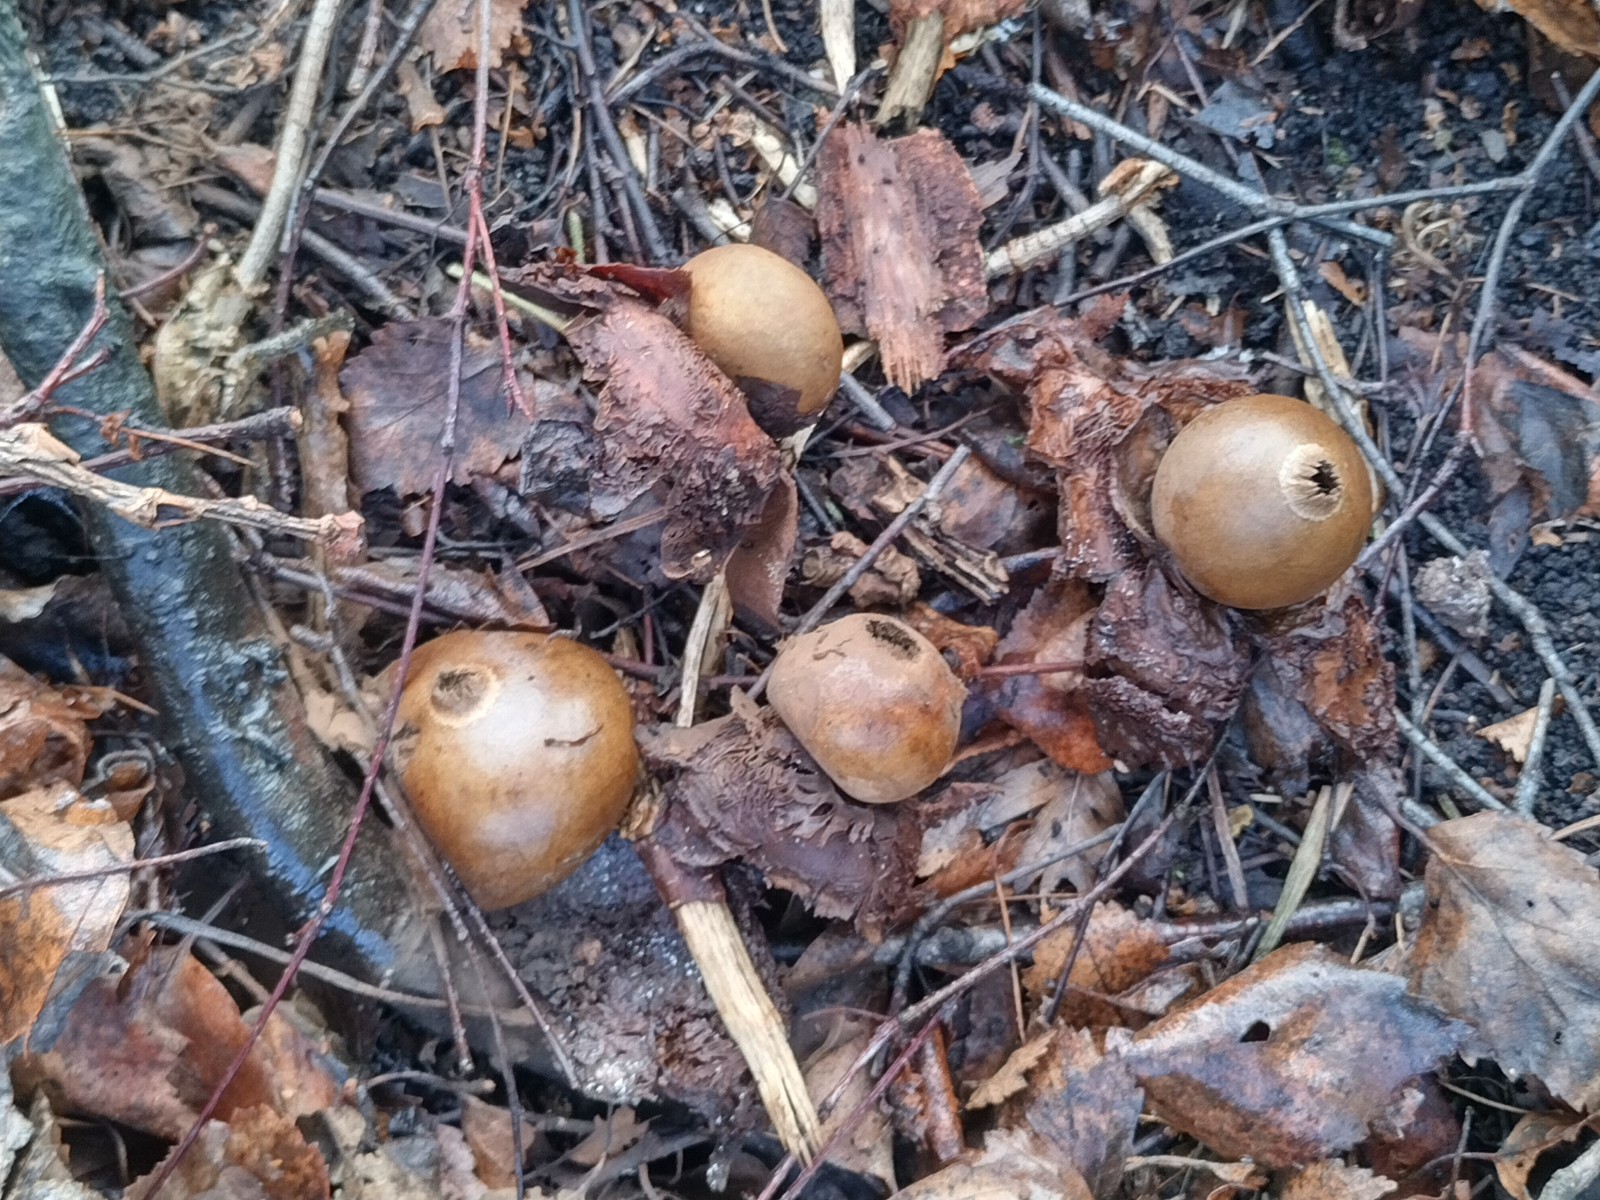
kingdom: Fungi
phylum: Basidiomycota
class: Agaricomycetes
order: Geastrales
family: Geastraceae
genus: Geastrum
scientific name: Geastrum michelianum
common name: kødet stjernebold
